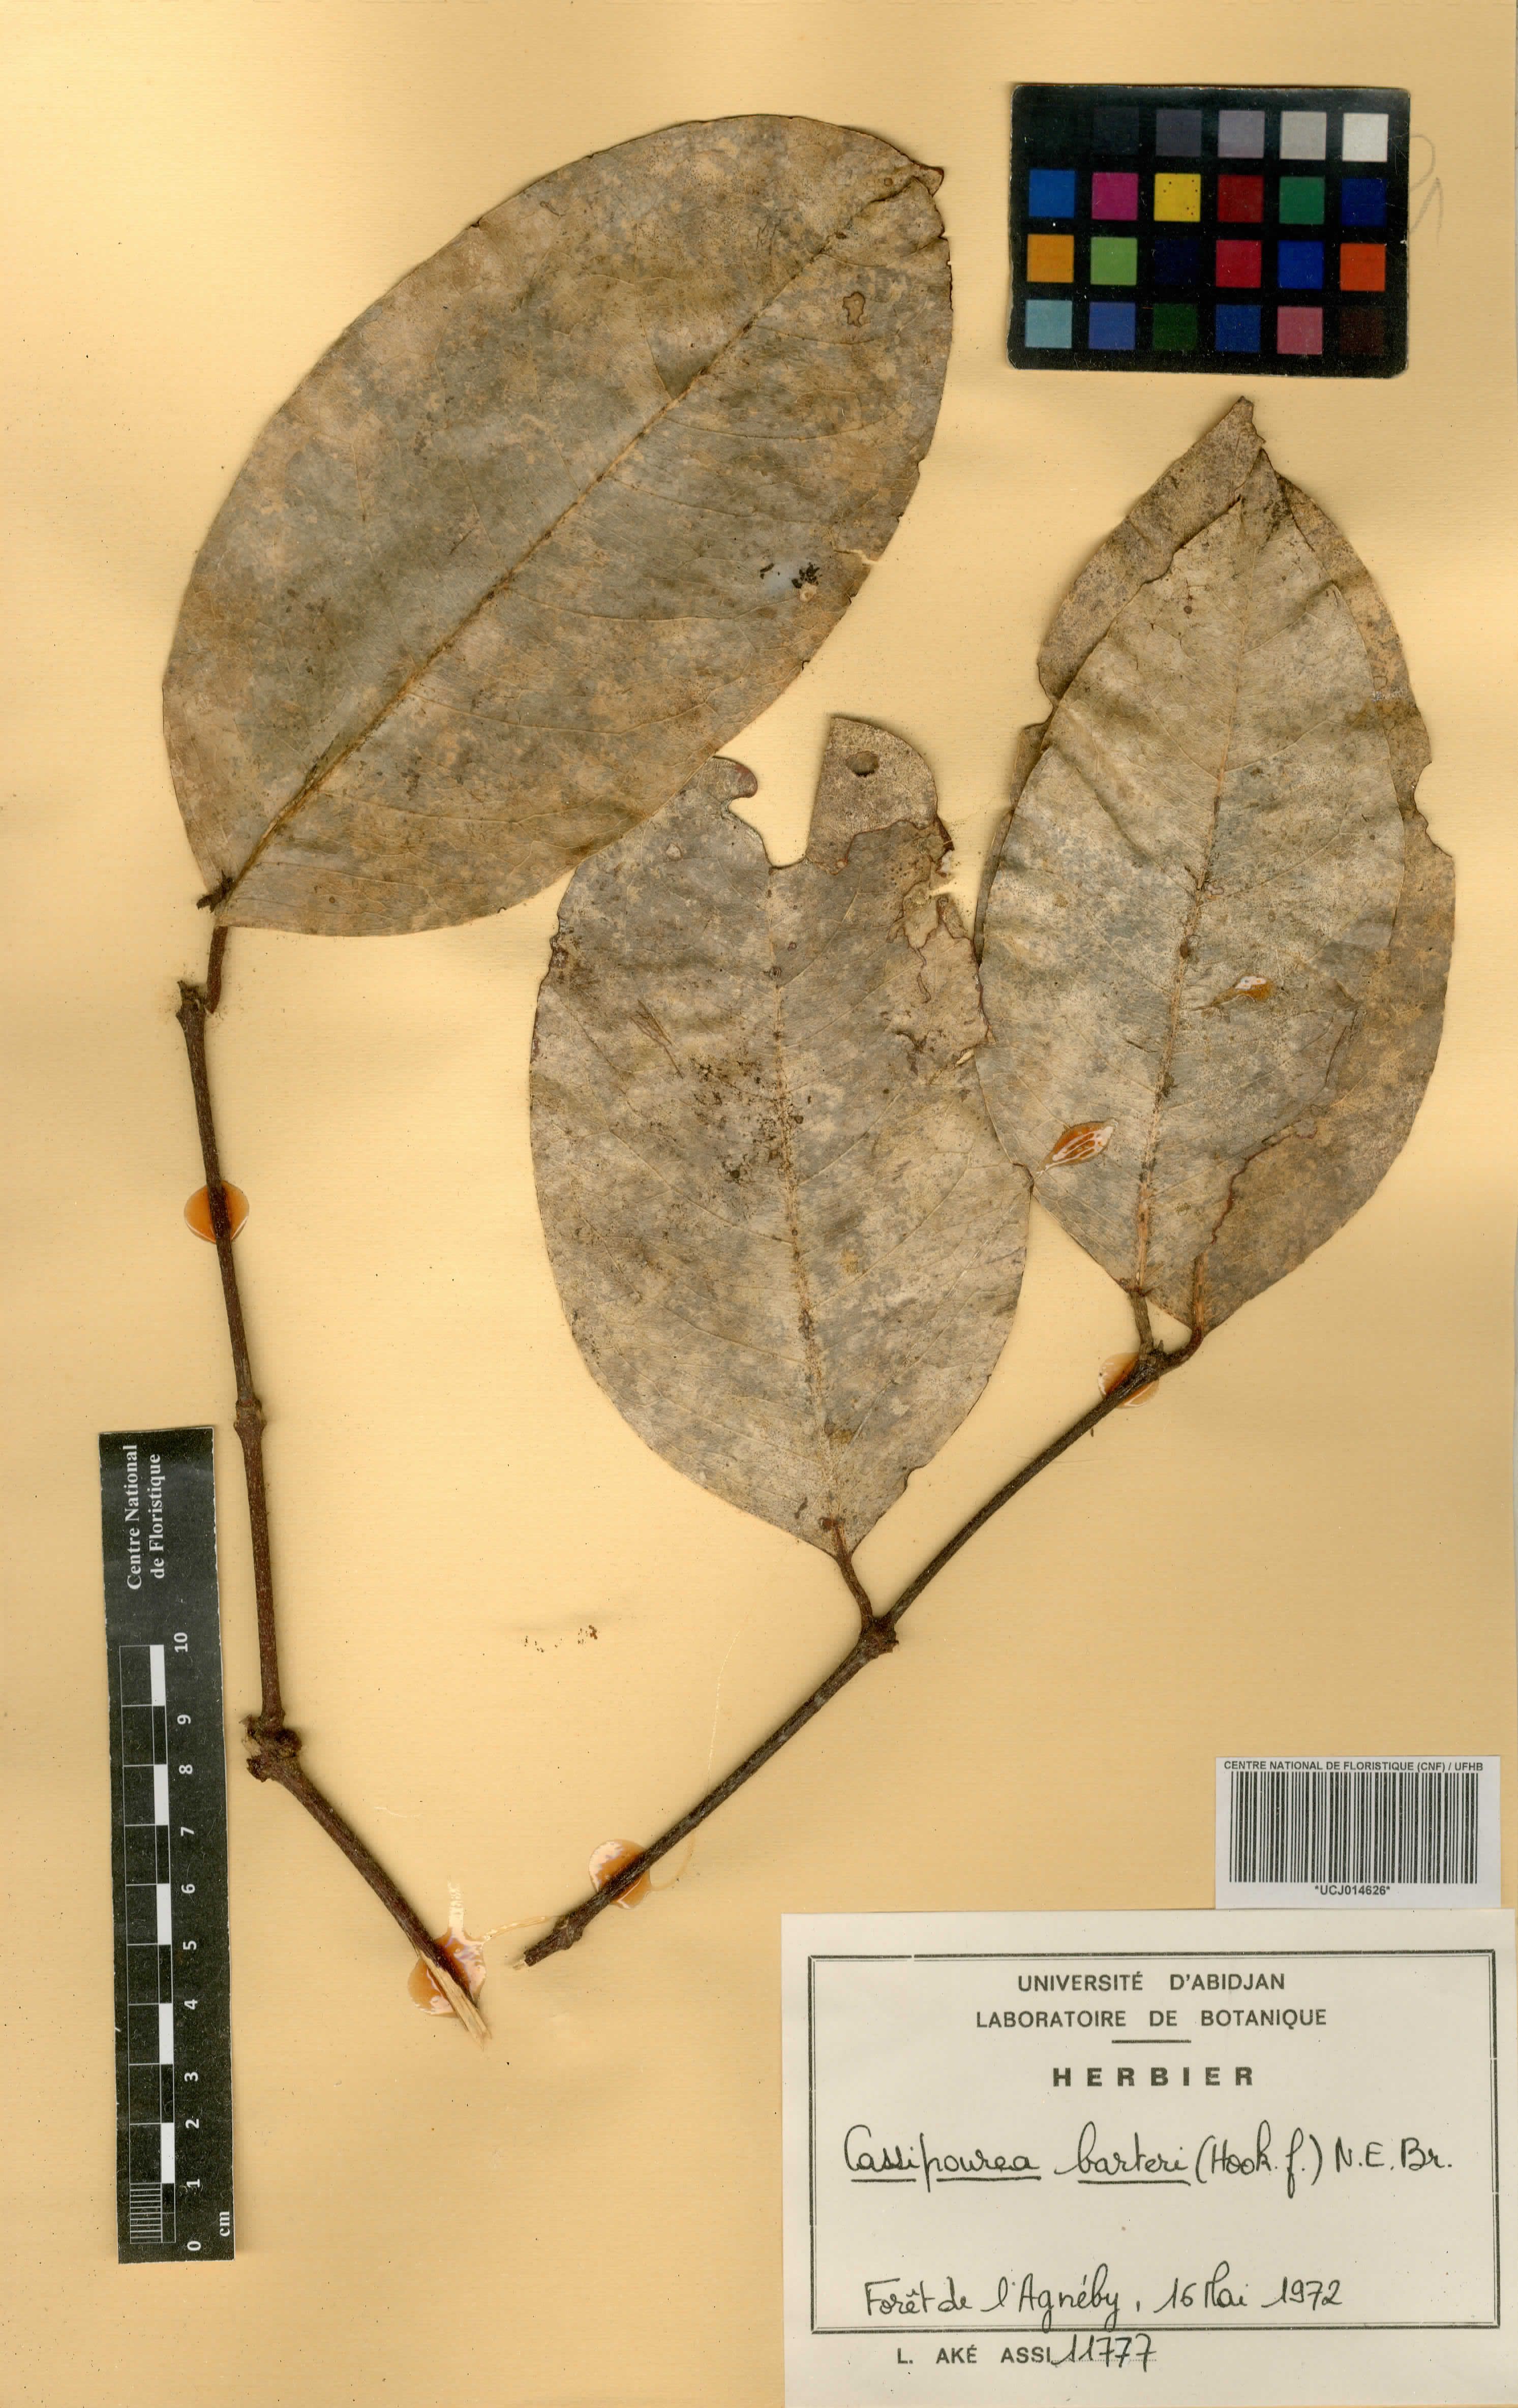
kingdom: Plantae
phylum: Tracheophyta
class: Magnoliopsida
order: Malpighiales
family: Rhizophoraceae
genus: Cassipourea
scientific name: Cassipourea barteri
